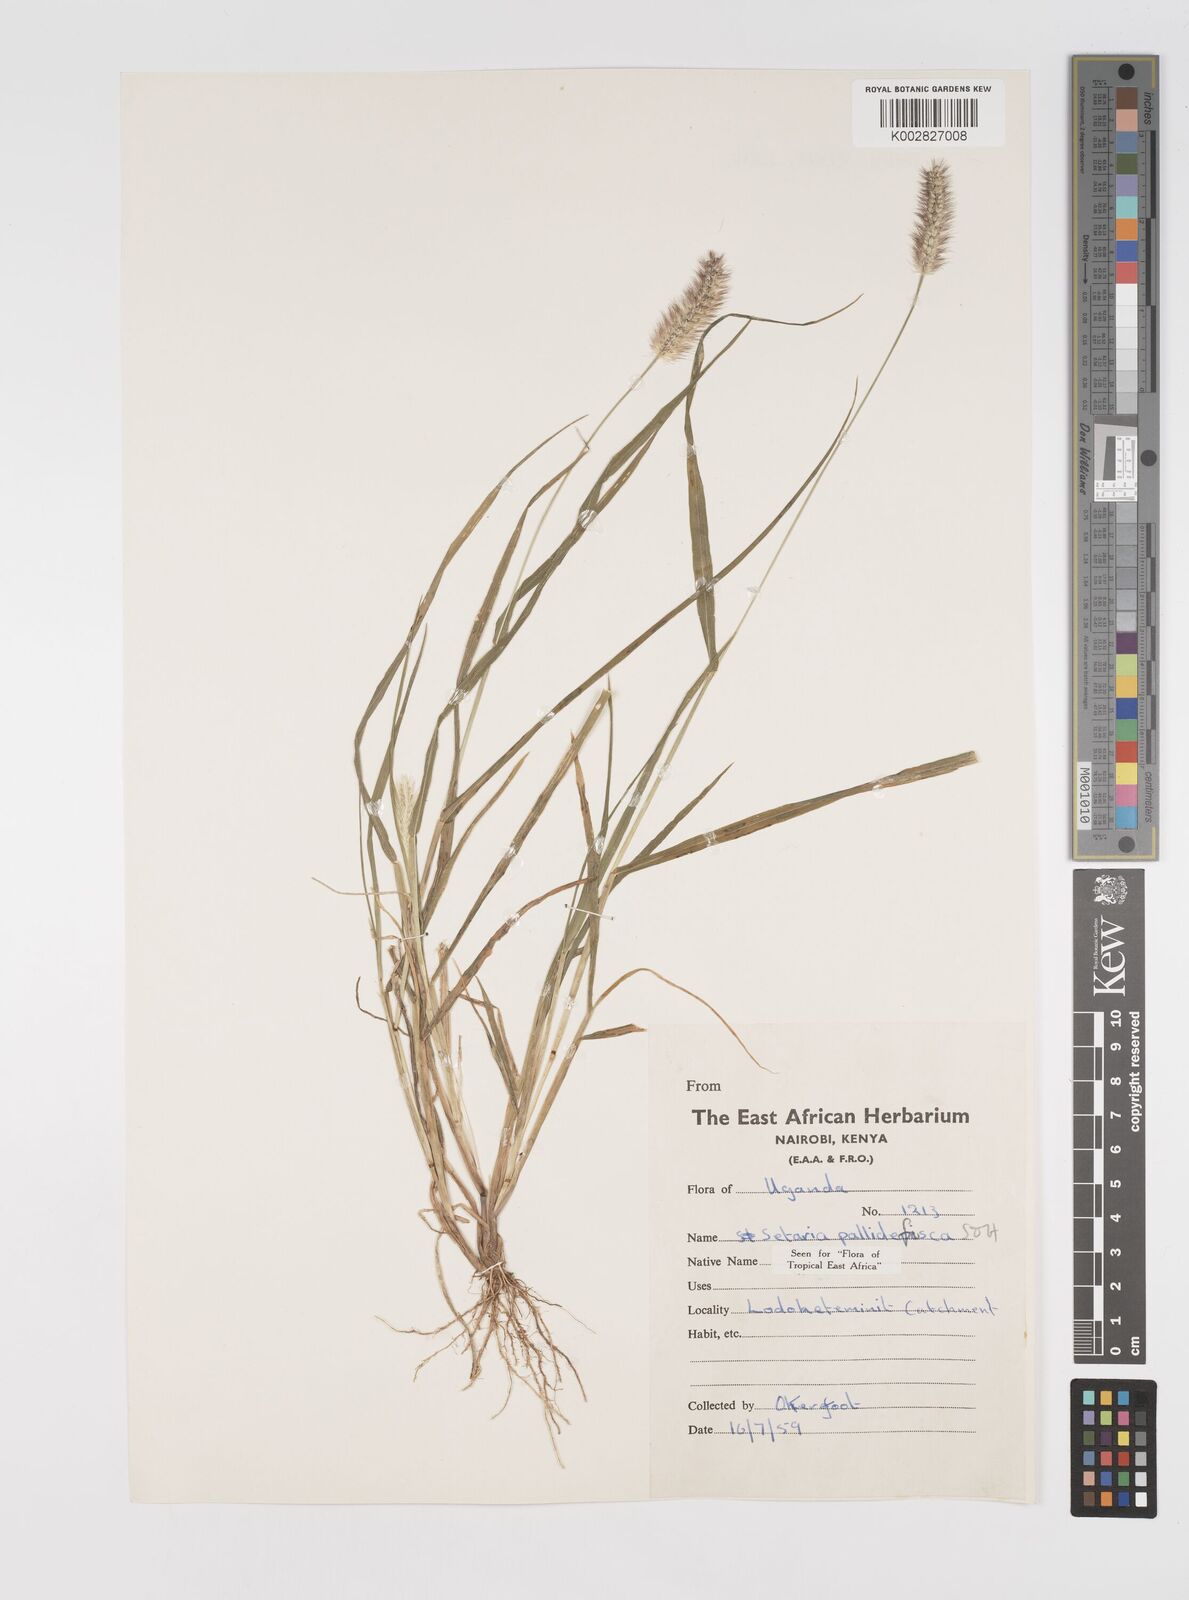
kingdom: Plantae
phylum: Tracheophyta
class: Liliopsida
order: Poales
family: Poaceae
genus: Setaria
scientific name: Setaria pumila
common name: Yellow bristle-grass
